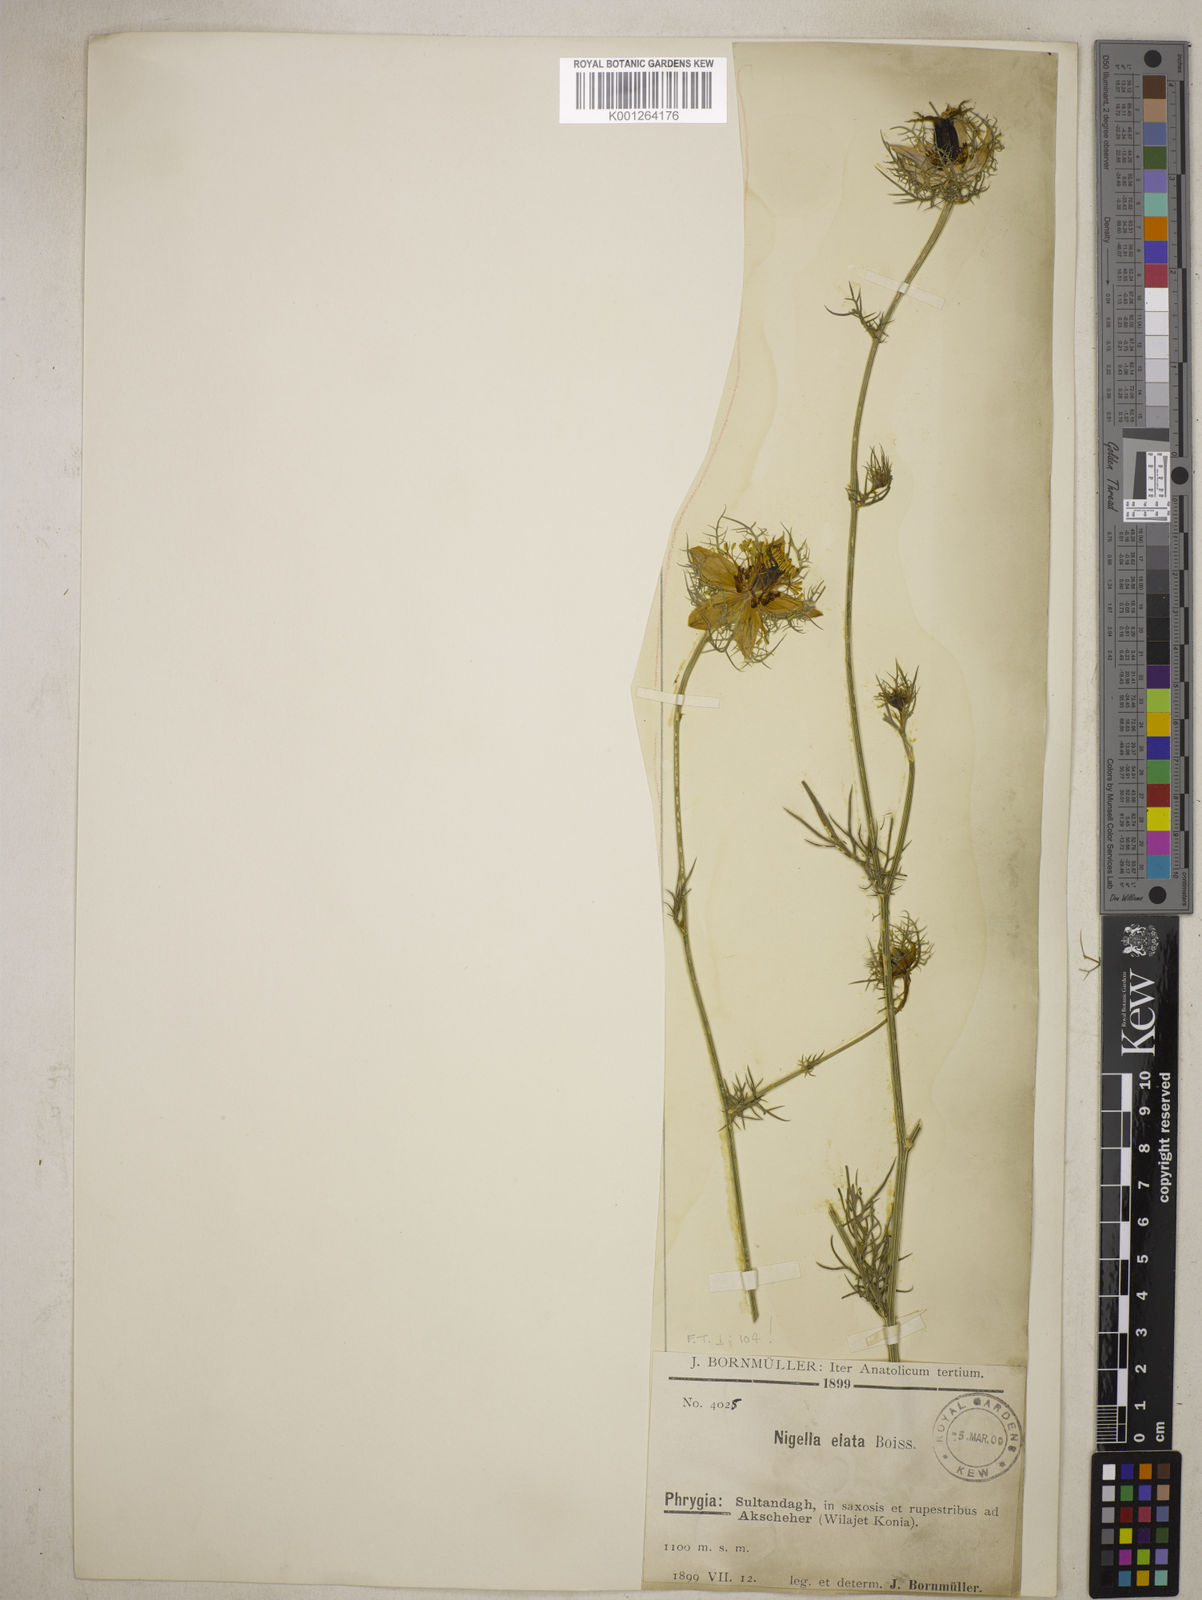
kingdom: Plantae
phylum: Tracheophyta
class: Magnoliopsida
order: Ranunculales
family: Ranunculaceae
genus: Nigella
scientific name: Nigella elata
